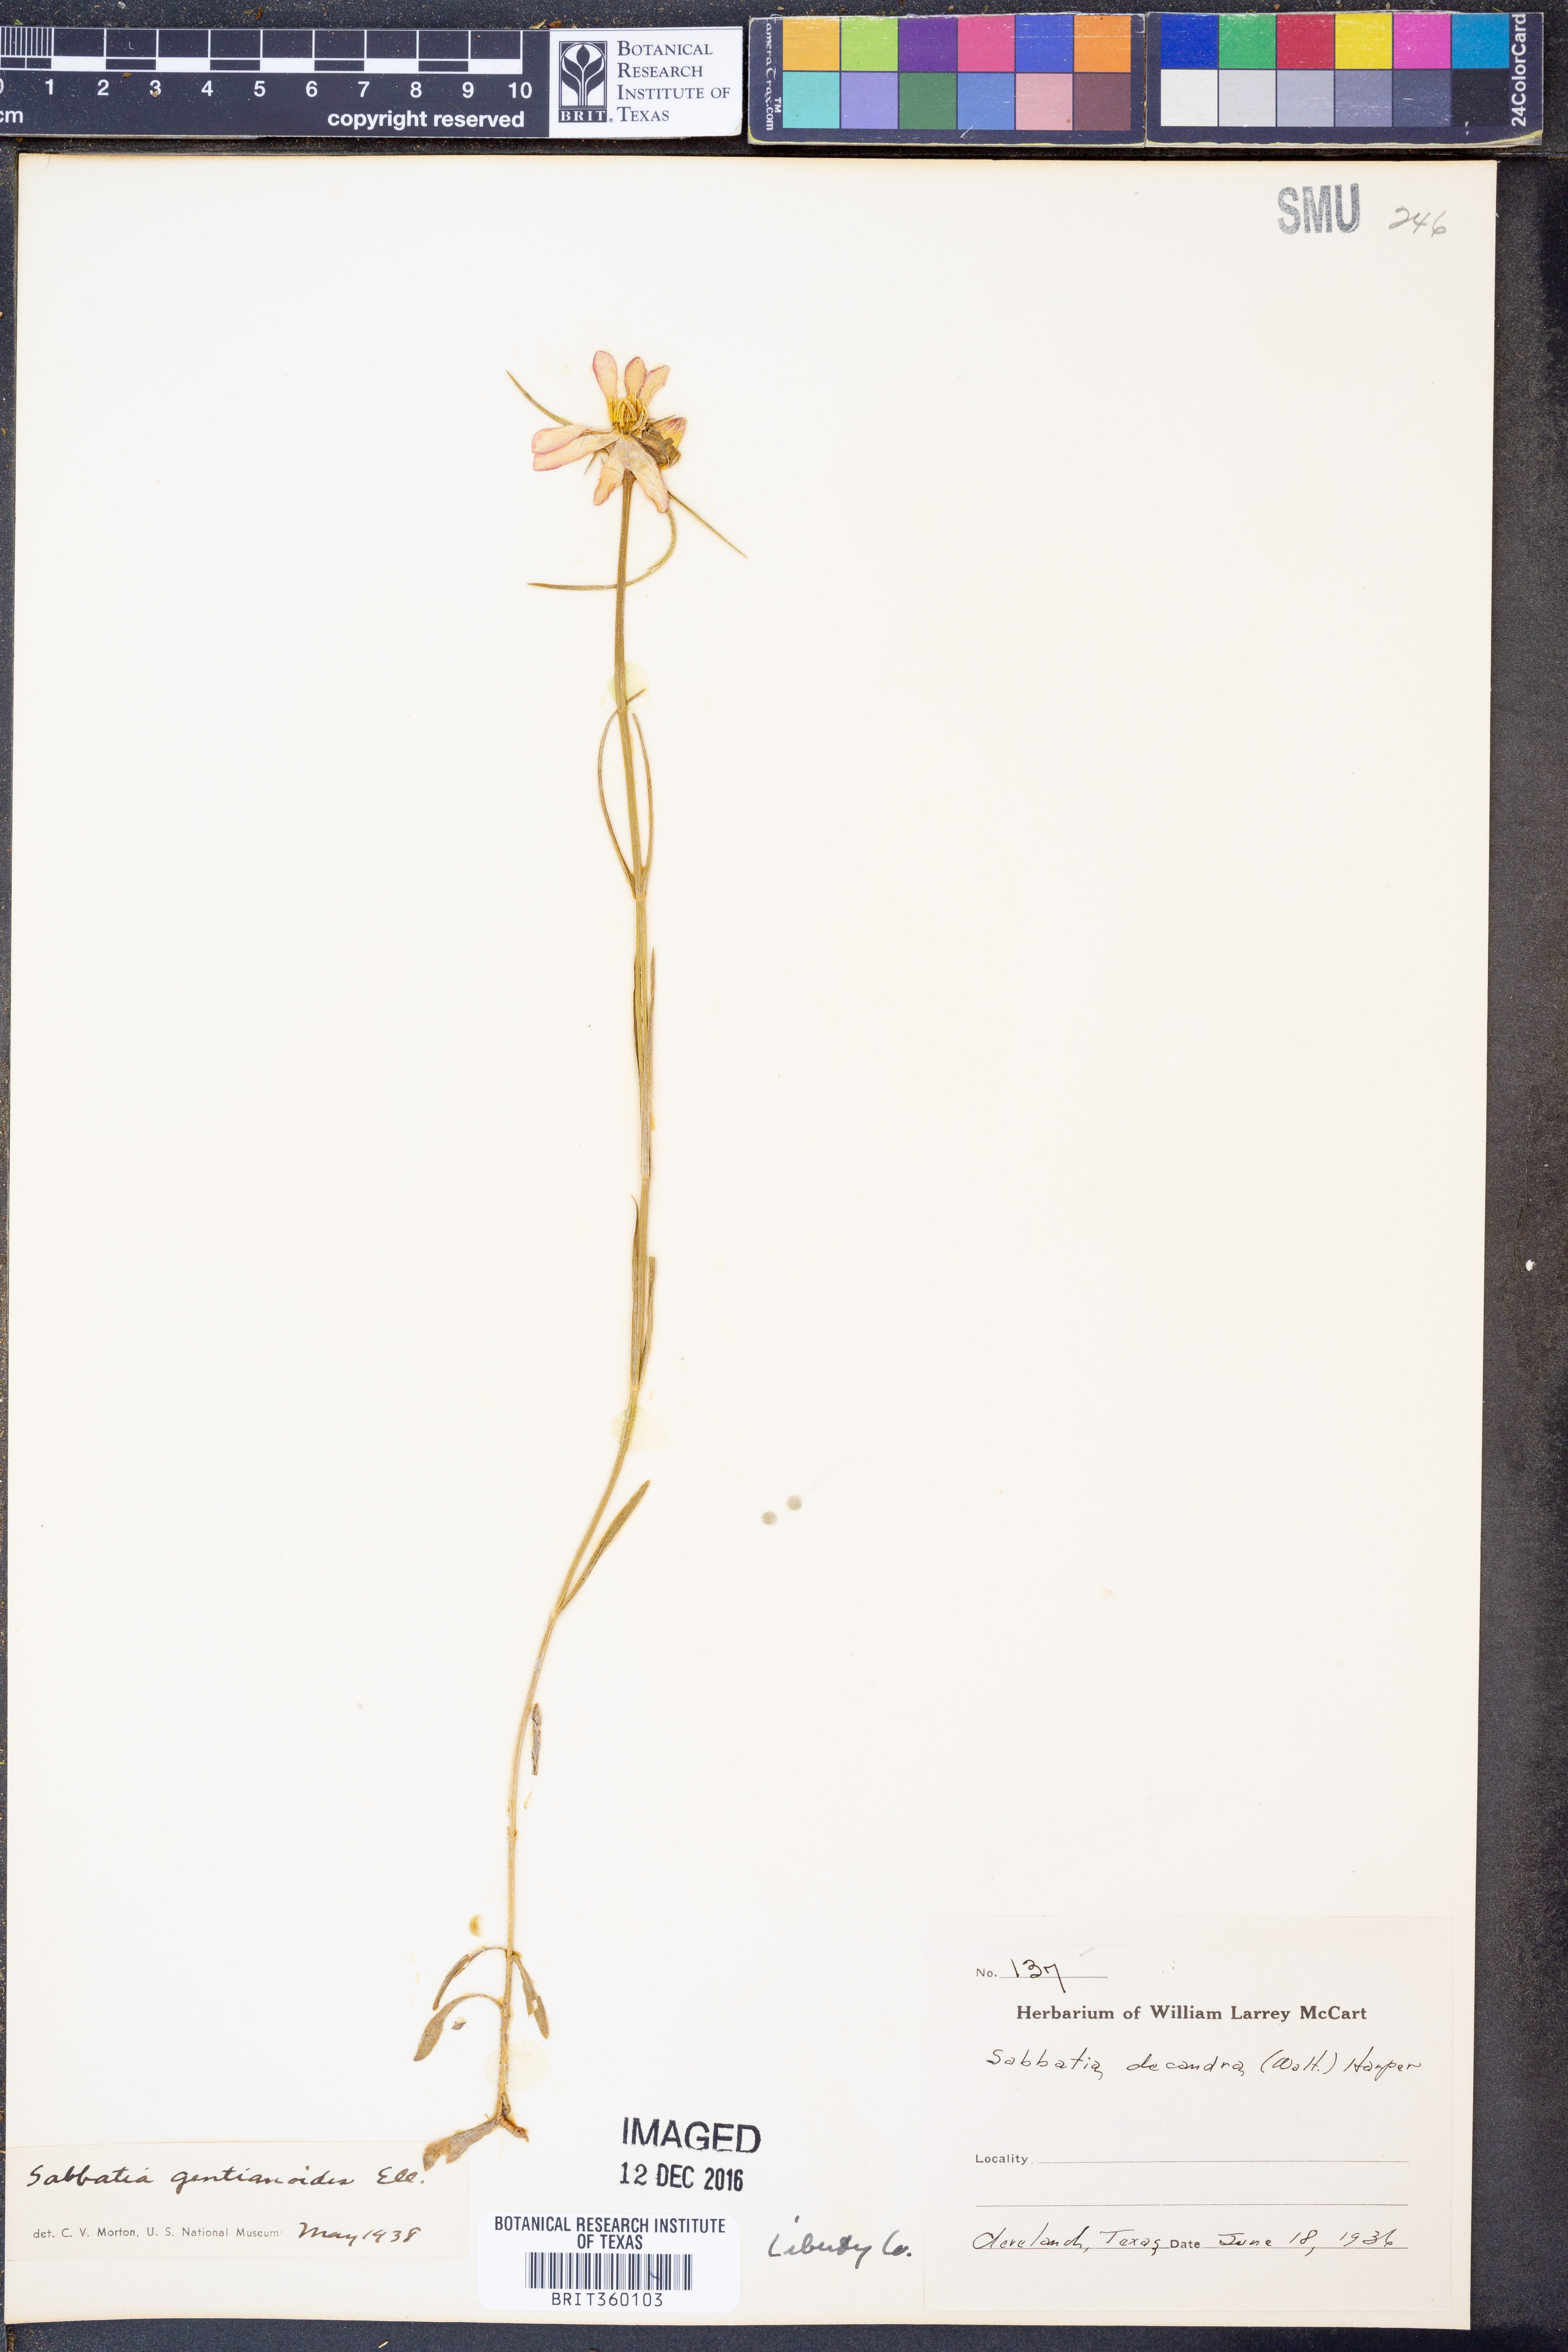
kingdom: Plantae
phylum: Tracheophyta
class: Magnoliopsida
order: Gentianales
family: Gentianaceae
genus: Sabatia
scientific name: Sabatia gentianoides
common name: Pinewoods rose-gentian
